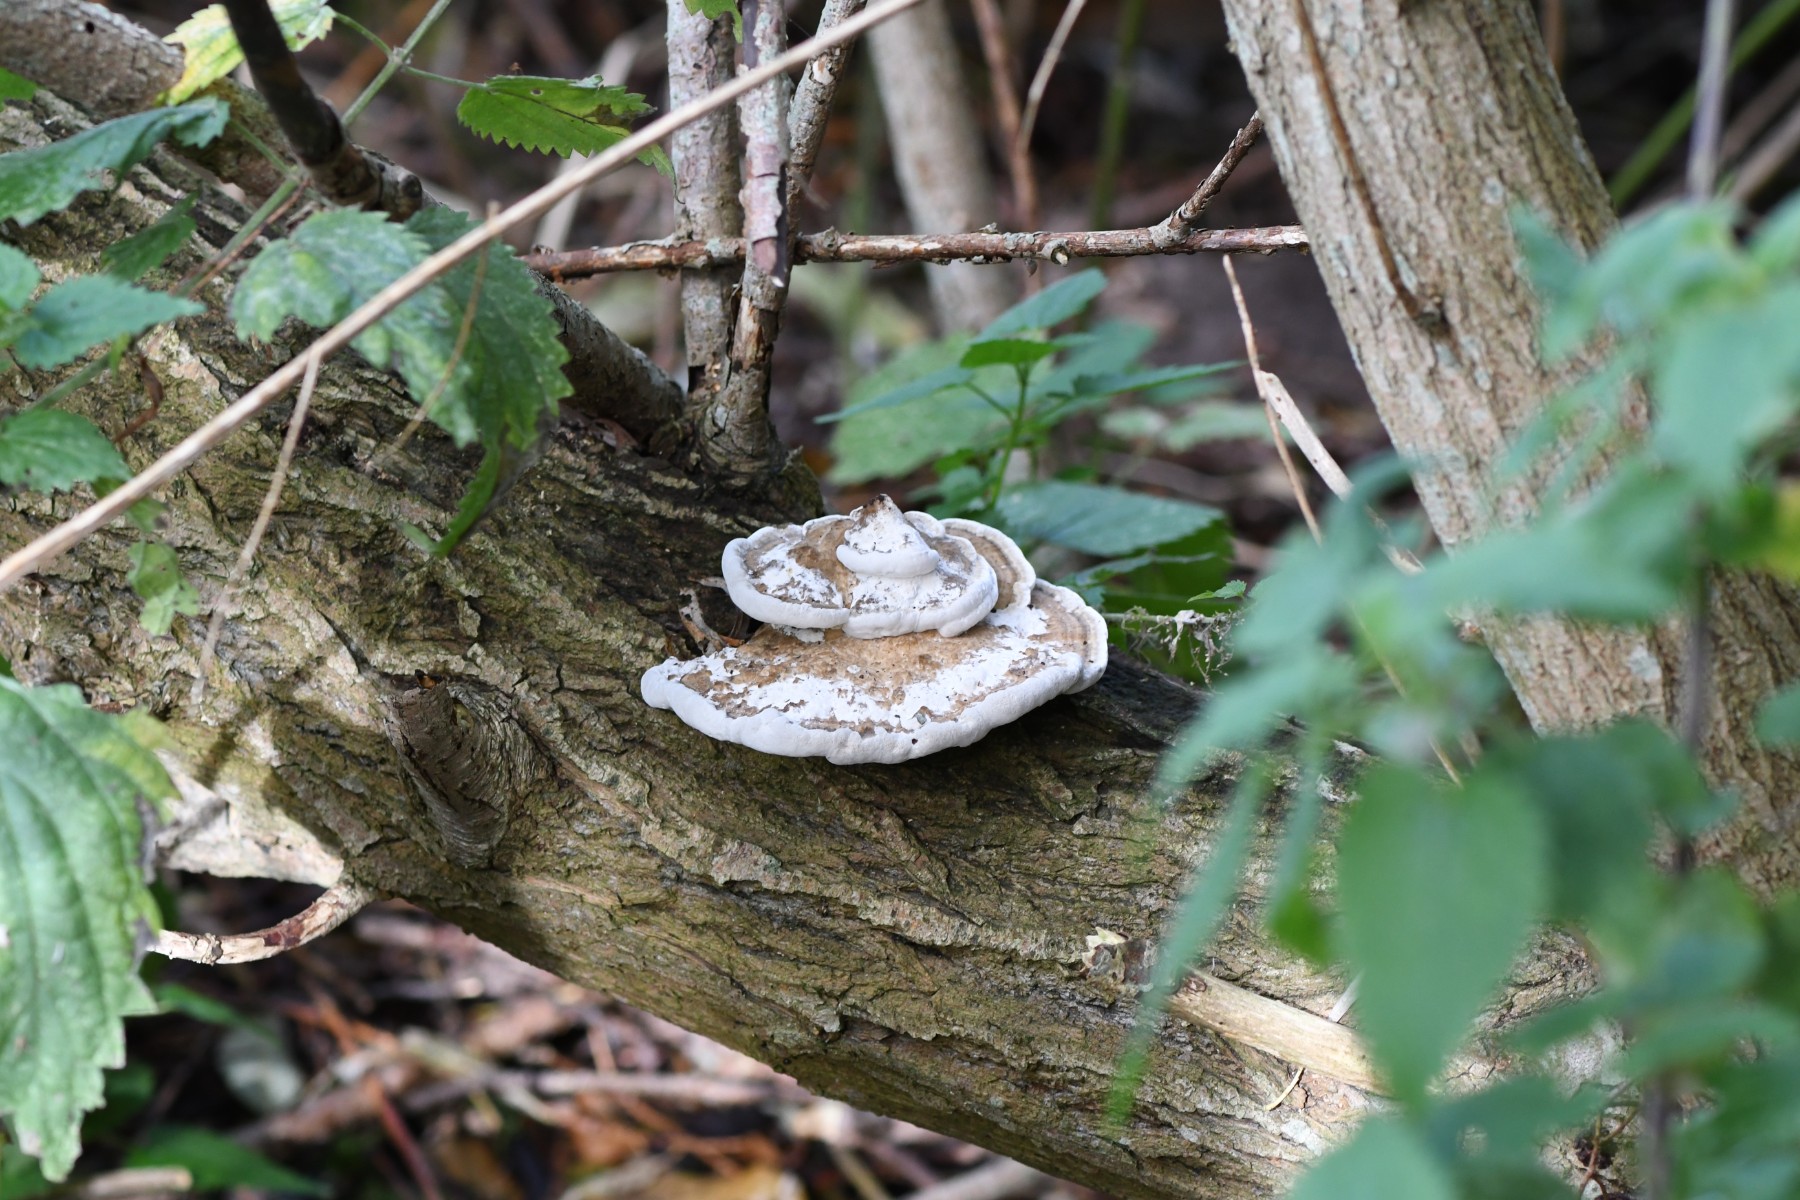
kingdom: Fungi
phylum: Basidiomycota
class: Agaricomycetes
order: Polyporales
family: Polyporaceae
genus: Daedaleopsis
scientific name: Daedaleopsis confragosa
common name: rødmende læderporesvamp
